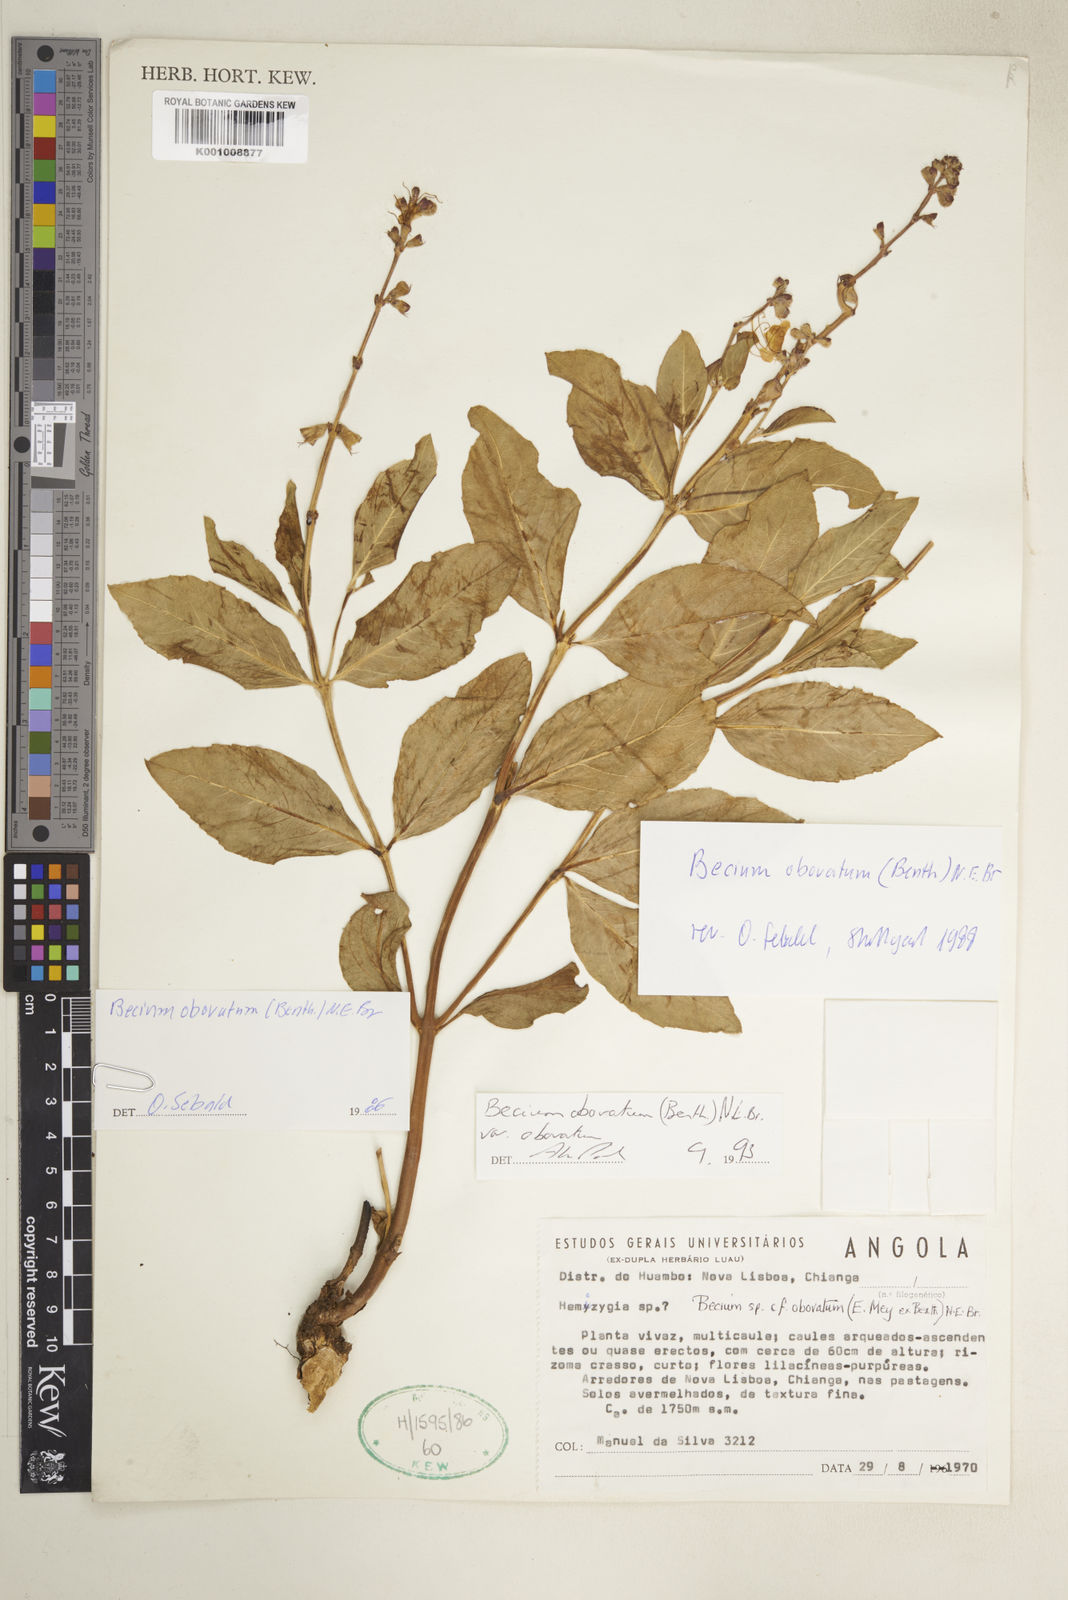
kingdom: Plantae
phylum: Tracheophyta
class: Magnoliopsida
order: Lamiales
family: Lamiaceae
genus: Ocimum
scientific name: Ocimum obovatum
